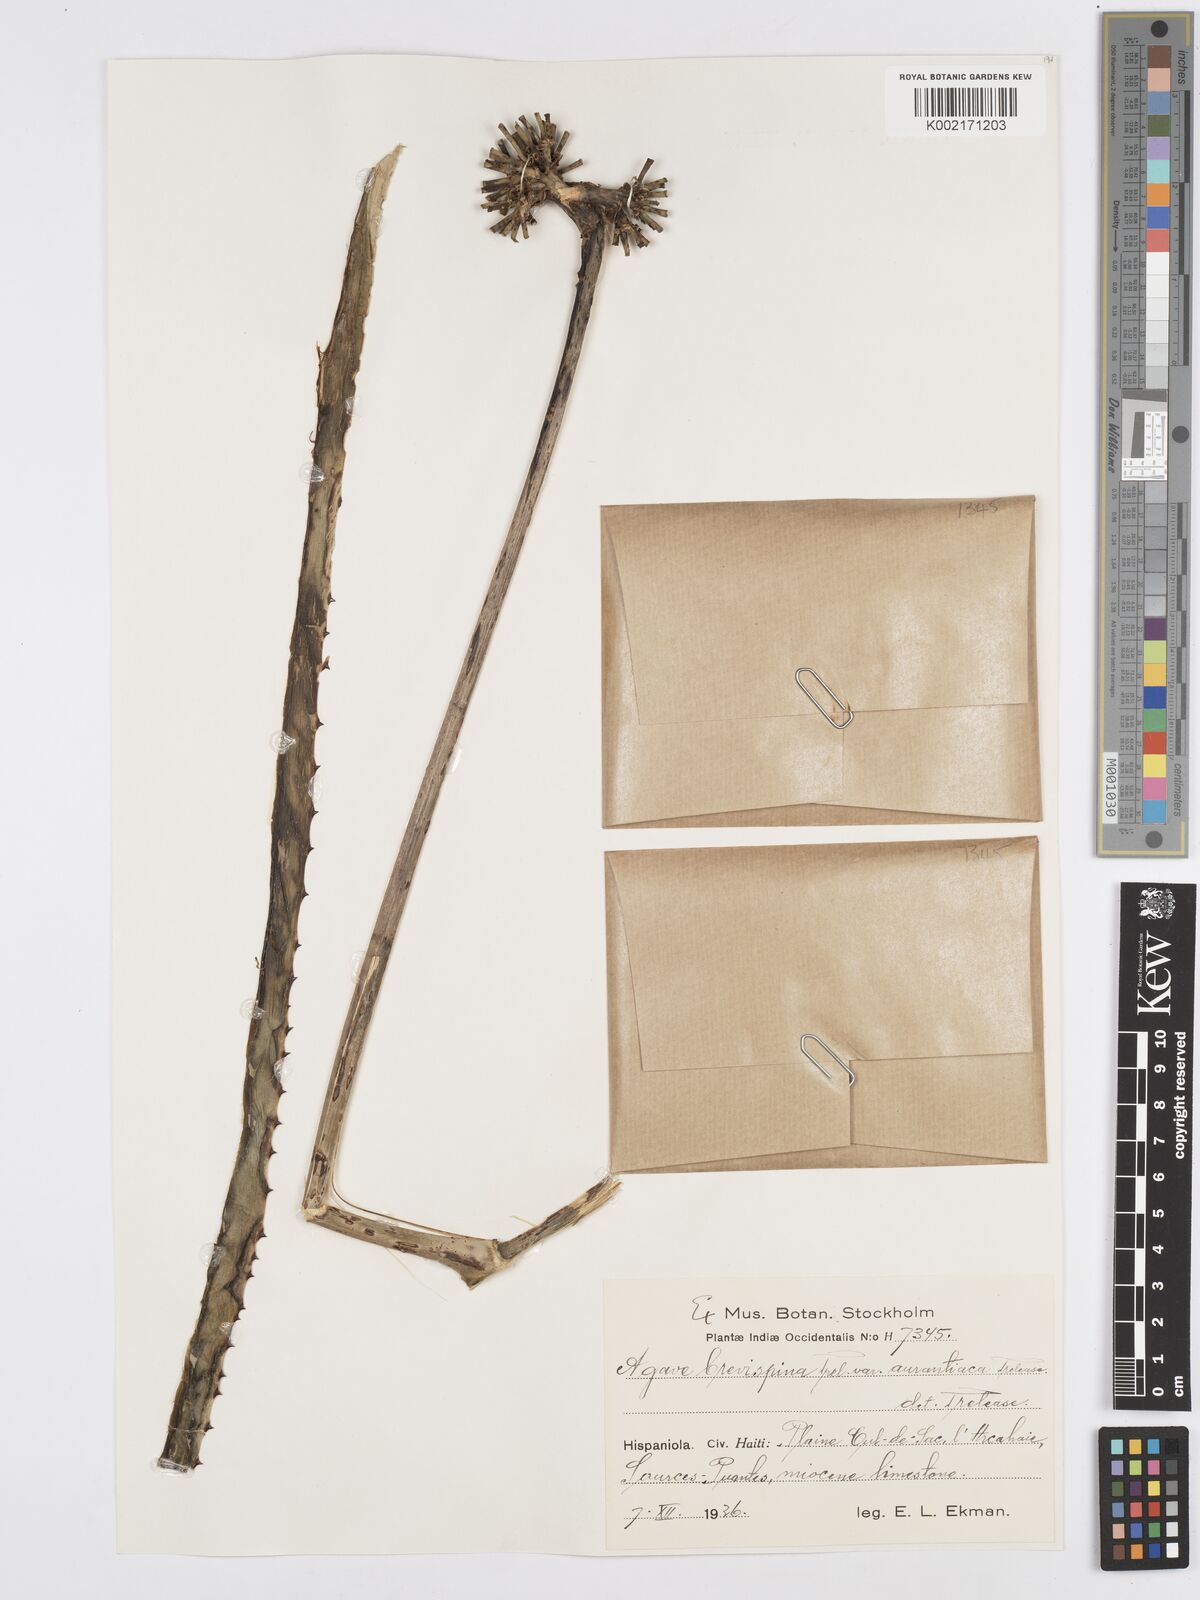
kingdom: Plantae
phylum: Tracheophyta
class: Liliopsida
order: Asparagales
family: Asparagaceae
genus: Agave
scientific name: Agave brevispina
